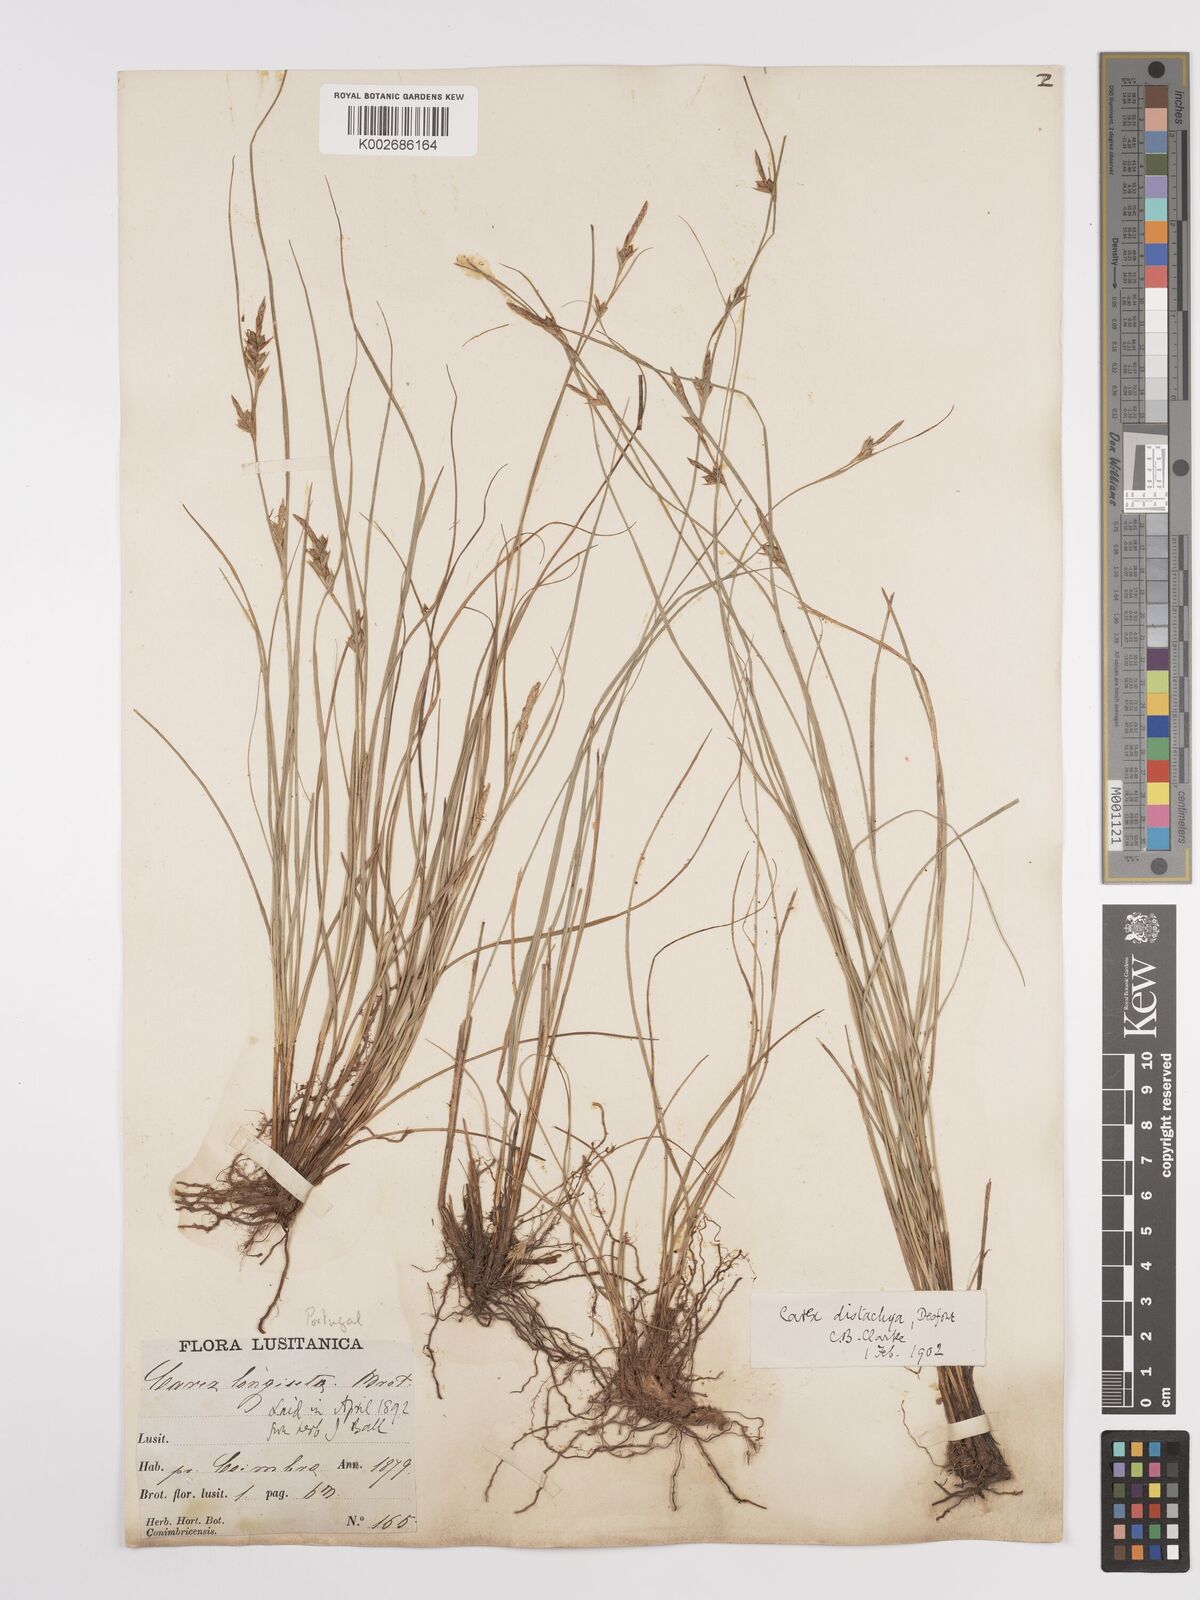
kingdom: Plantae
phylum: Tracheophyta
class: Liliopsida
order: Poales
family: Cyperaceae
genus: Carex
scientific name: Carex distachya
